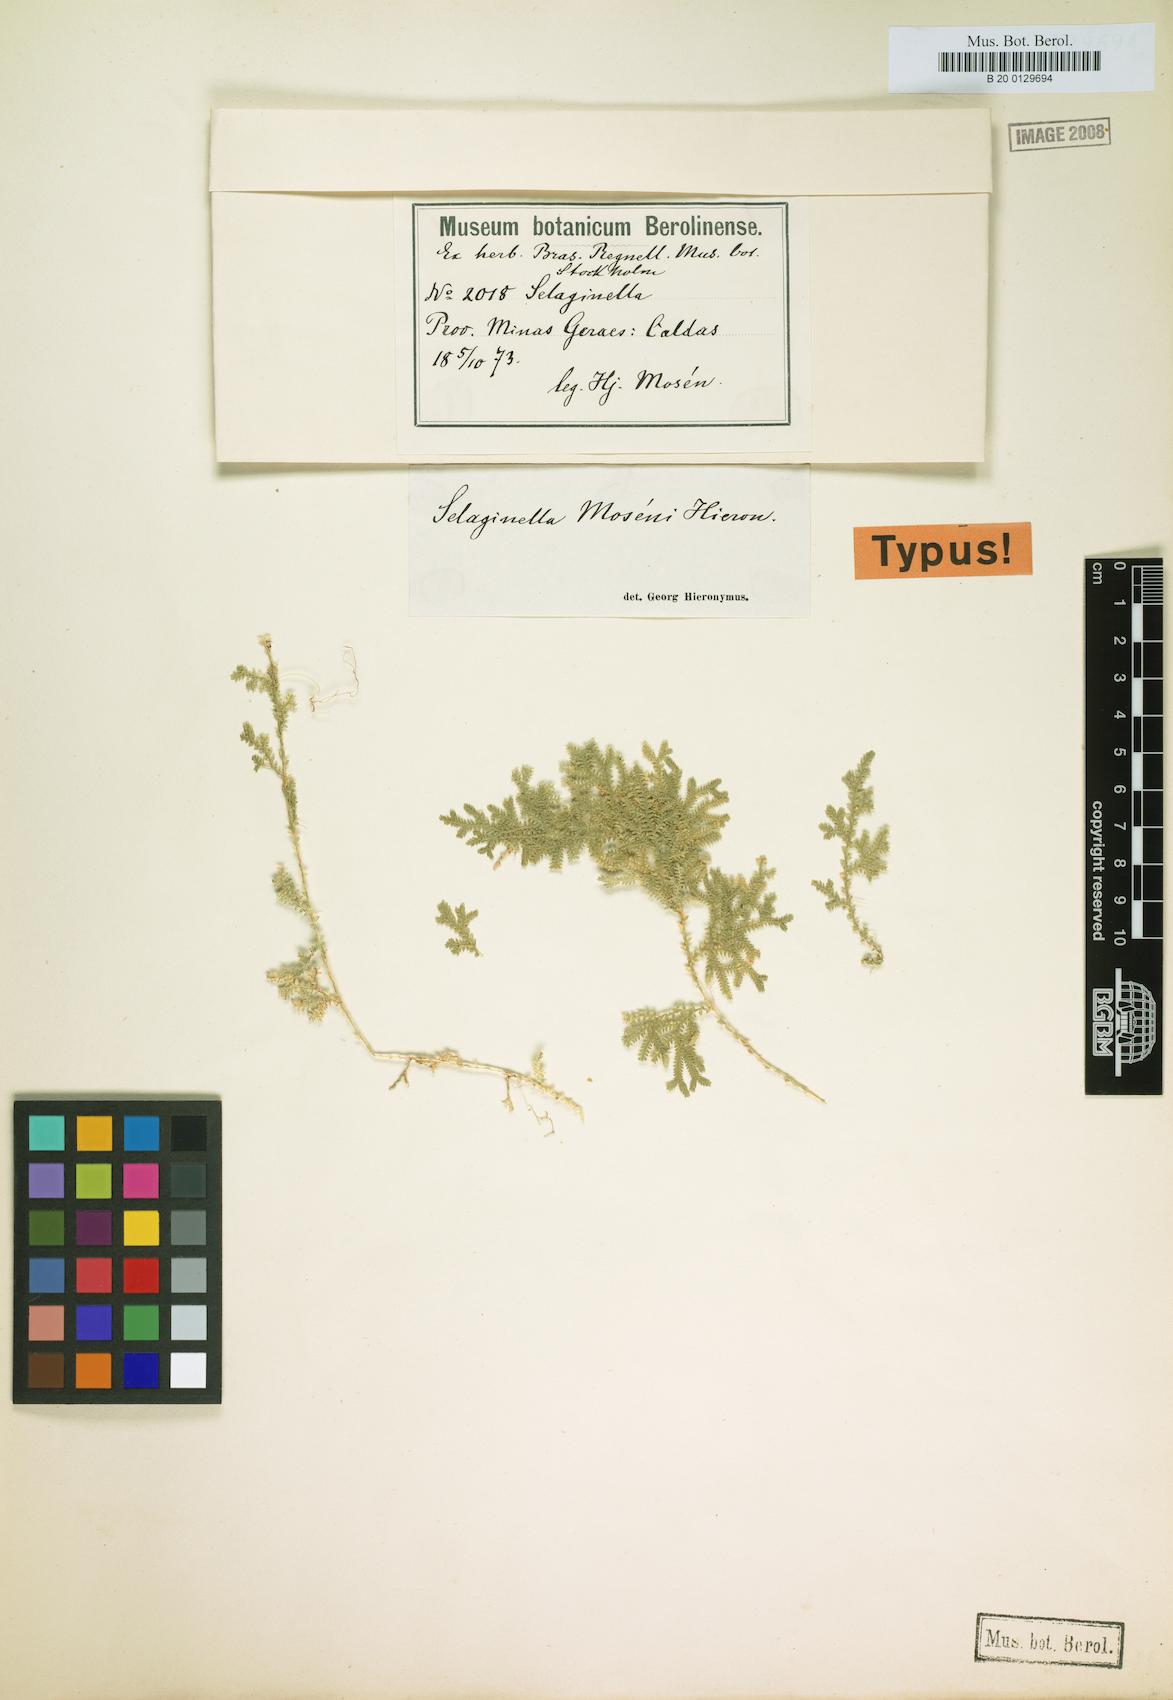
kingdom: Plantae
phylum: Tracheophyta
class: Lycopodiopsida
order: Selaginellales
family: Selaginellaceae
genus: Selaginella
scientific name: Selaginella marginata
